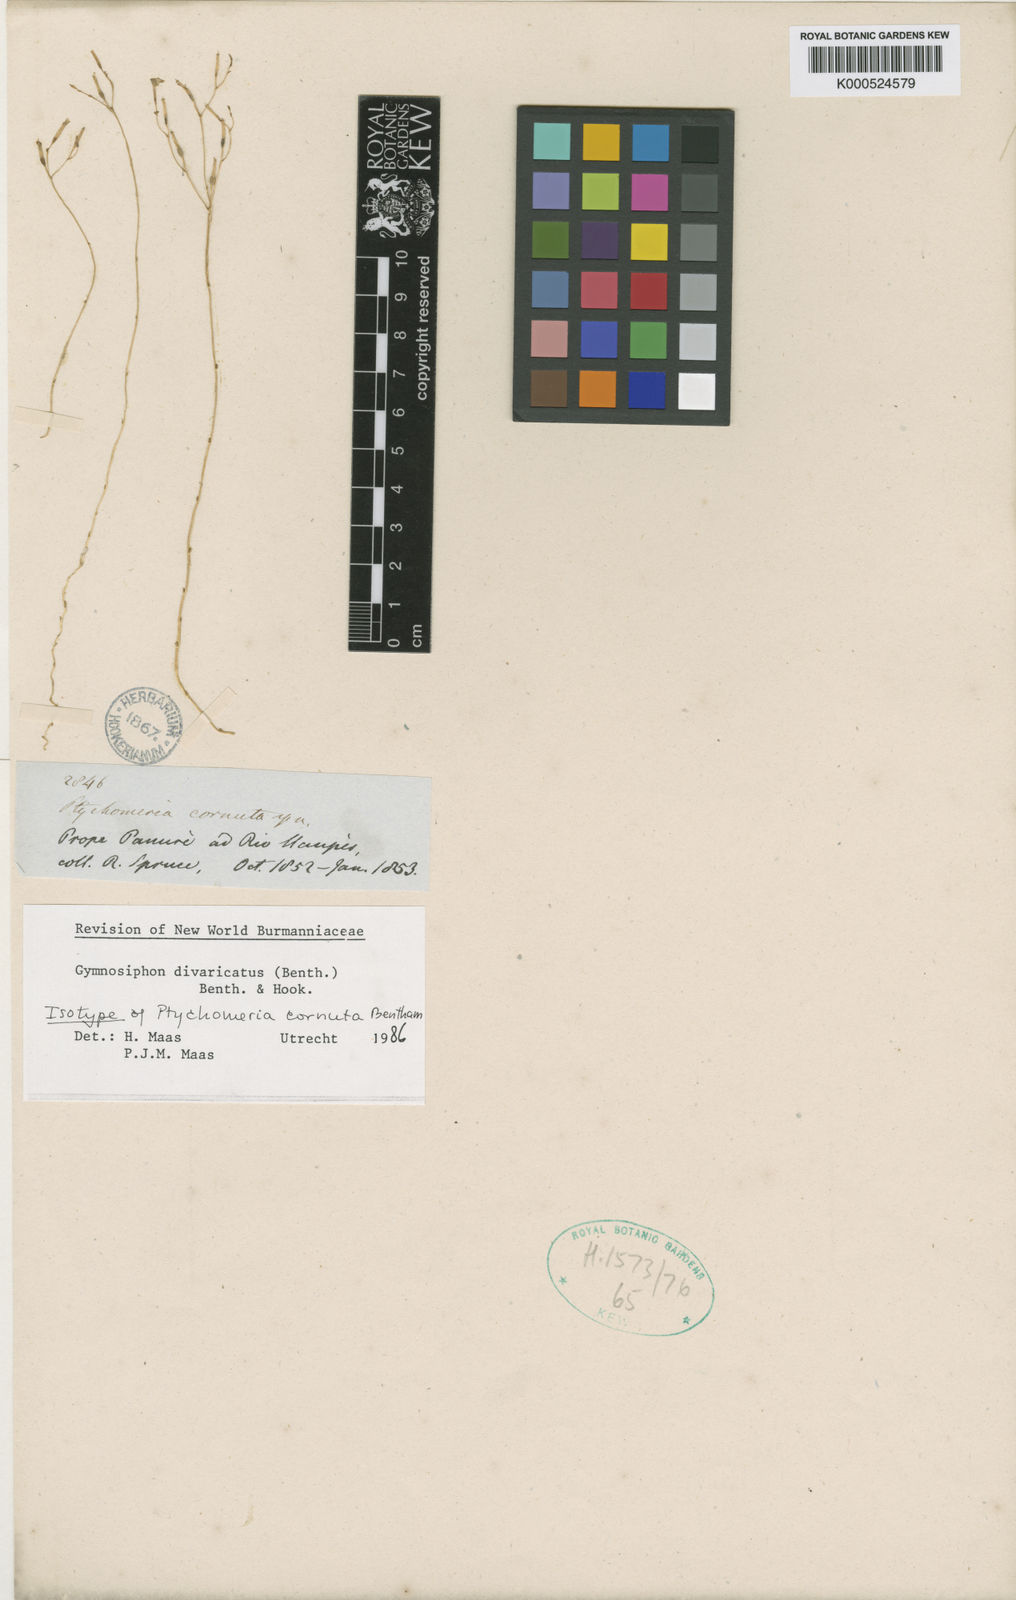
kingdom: Plantae
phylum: Tracheophyta
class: Liliopsida
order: Dioscoreales
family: Burmanniaceae
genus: Gymnosiphon
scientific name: Gymnosiphon divaricatus
